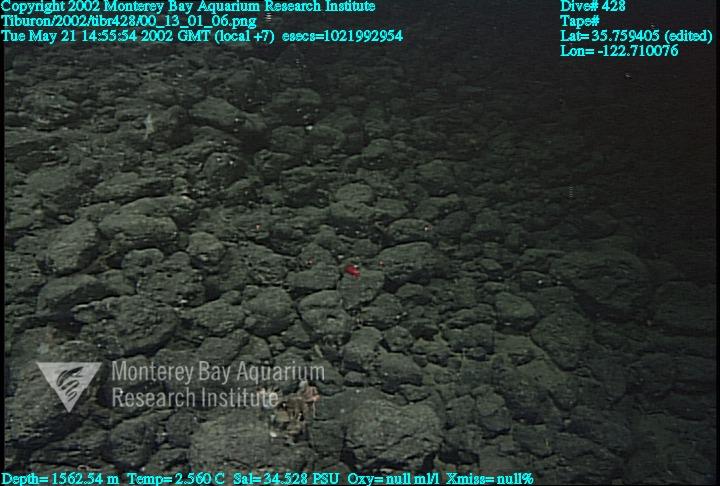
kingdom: Animalia
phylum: Porifera
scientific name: Porifera
